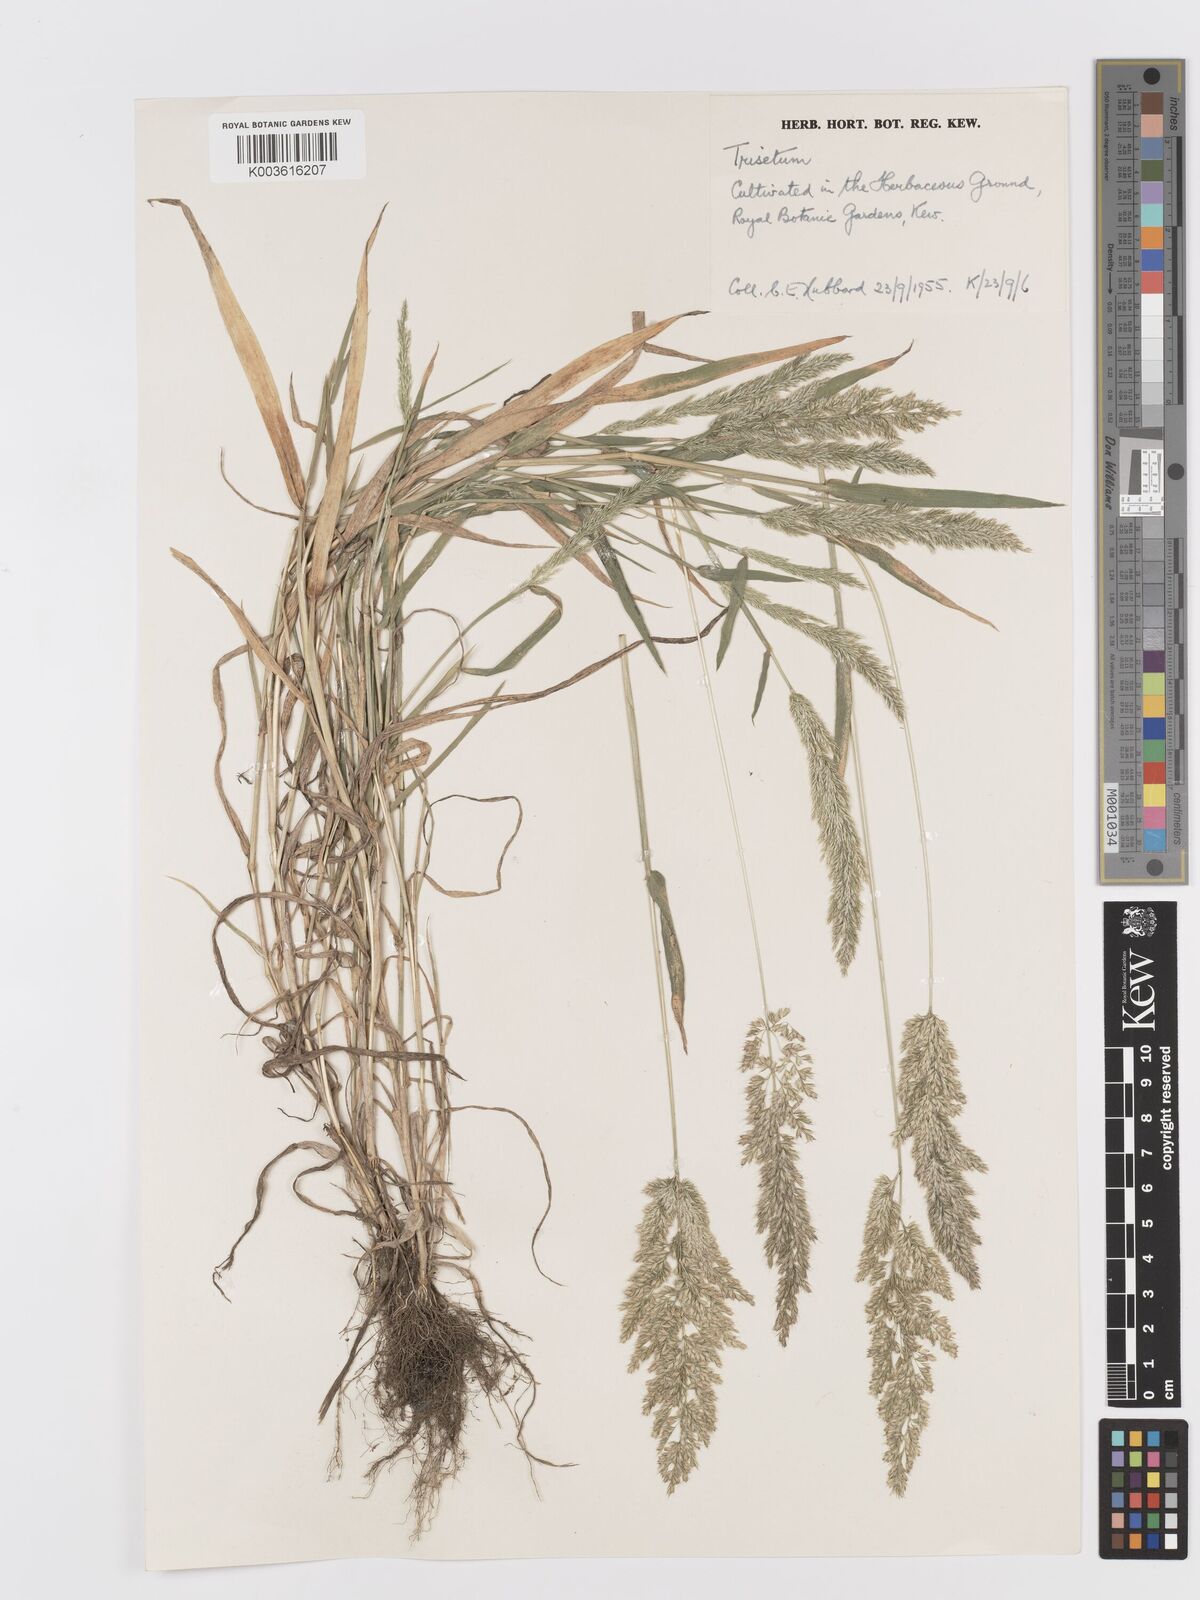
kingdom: Plantae
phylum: Tracheophyta
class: Liliopsida
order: Poales
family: Poaceae
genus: Trisetaria
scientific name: Trisetaria
